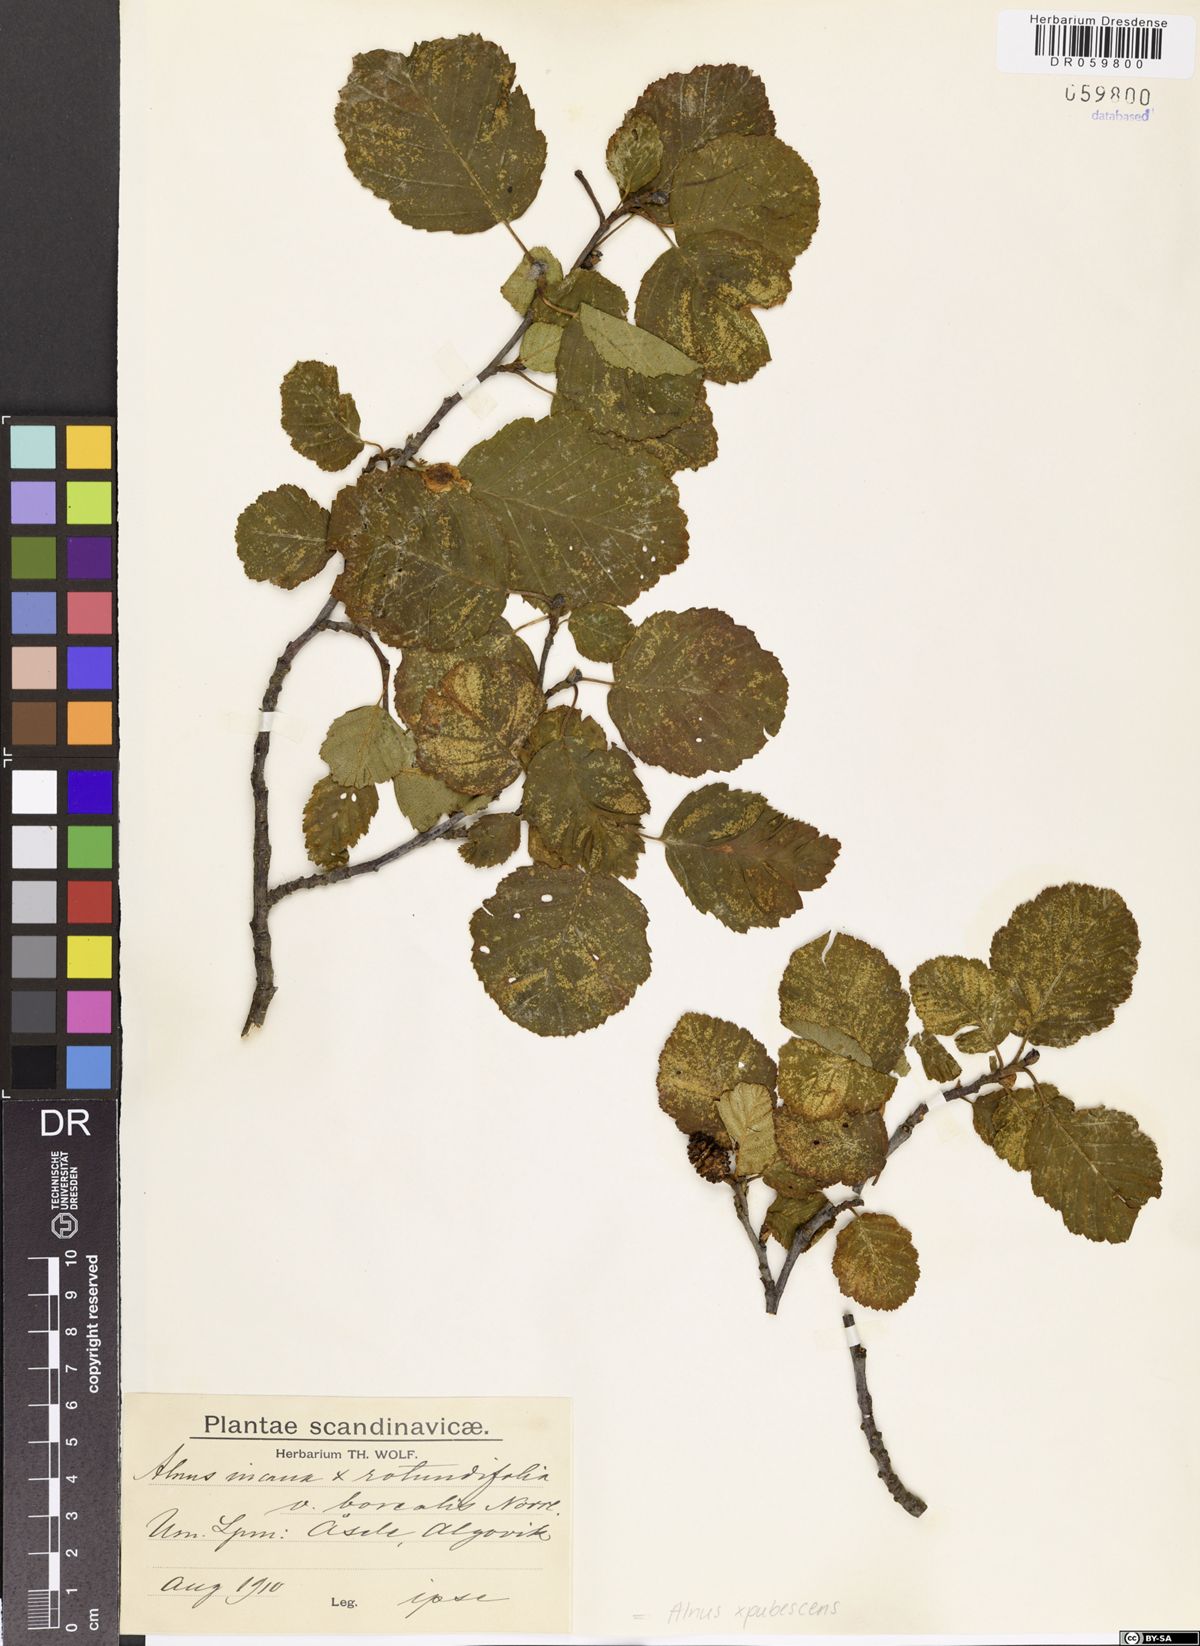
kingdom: Plantae
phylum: Tracheophyta
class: Magnoliopsida
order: Fagales
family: Betulaceae
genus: Alnus
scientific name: Alnus pubescens
